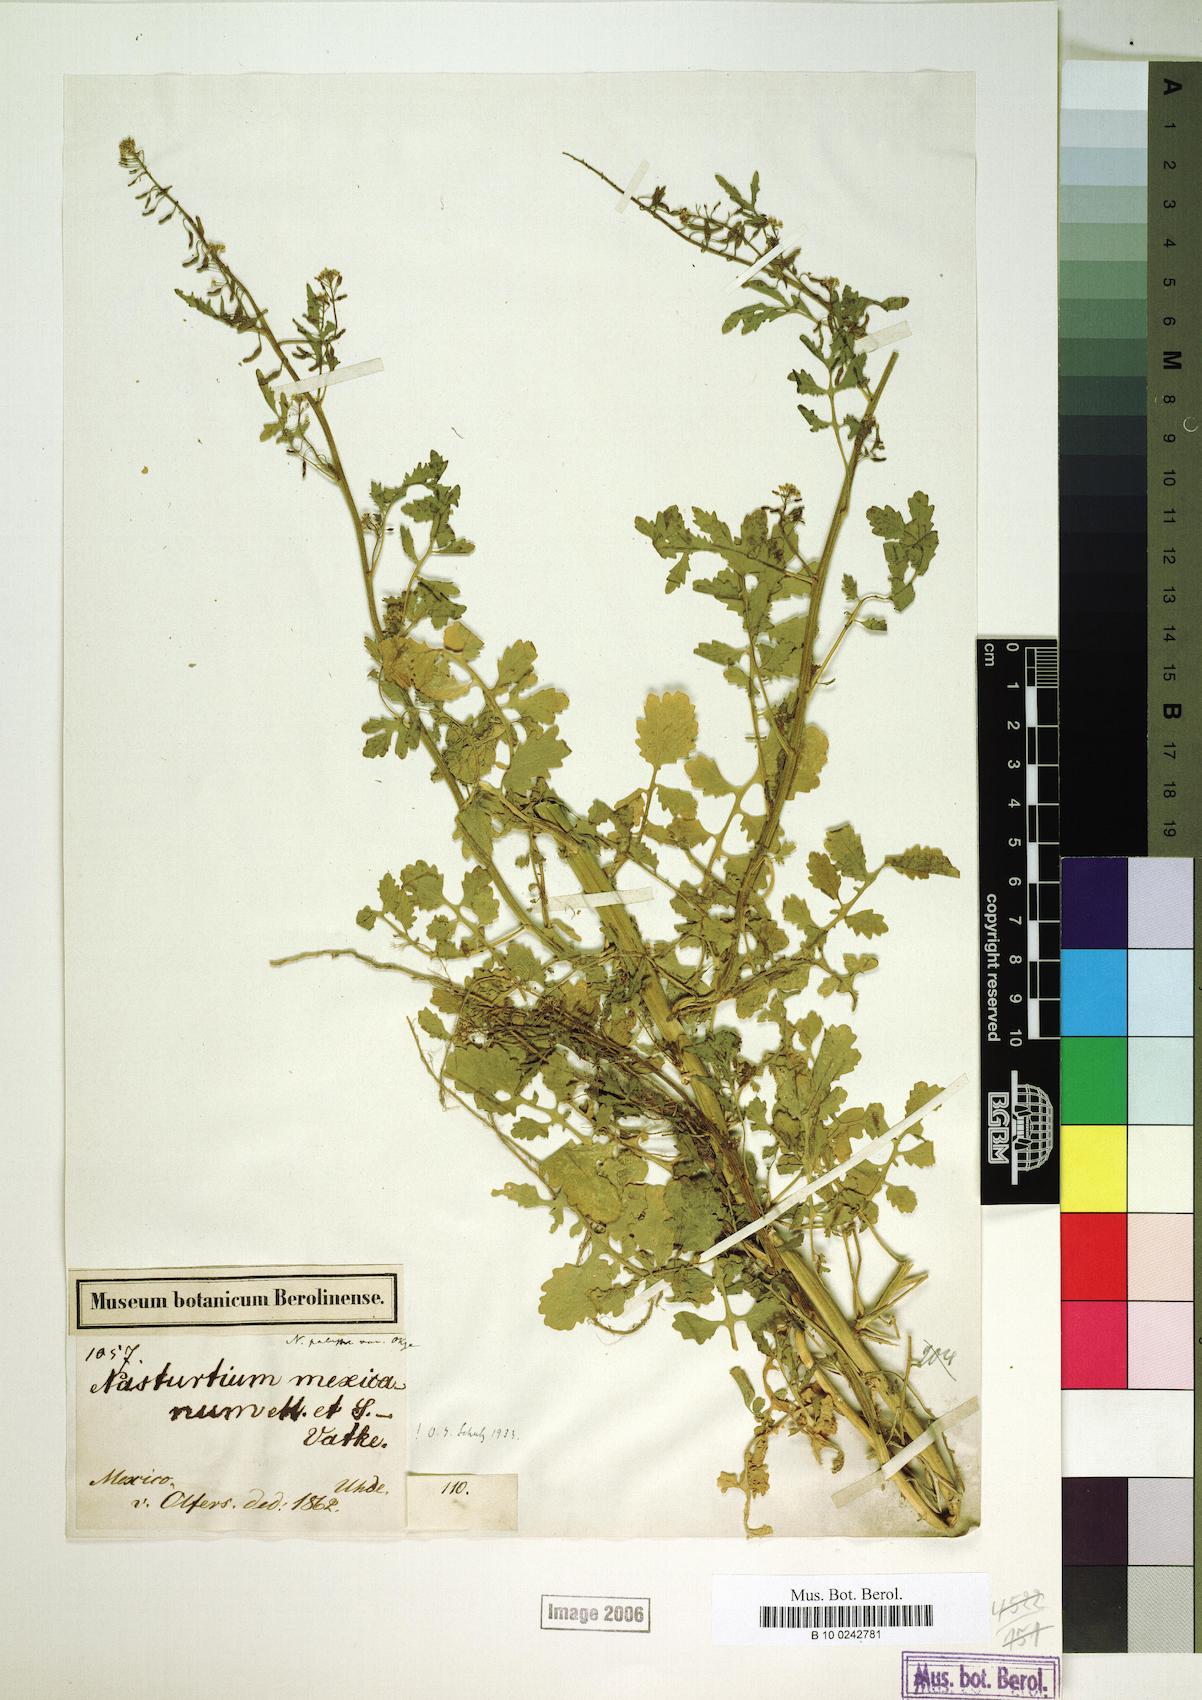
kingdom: Plantae
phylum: Tracheophyta
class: Magnoliopsida
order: Brassicales
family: Brassicaceae
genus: Rorippa
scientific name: Rorippa mexicana
